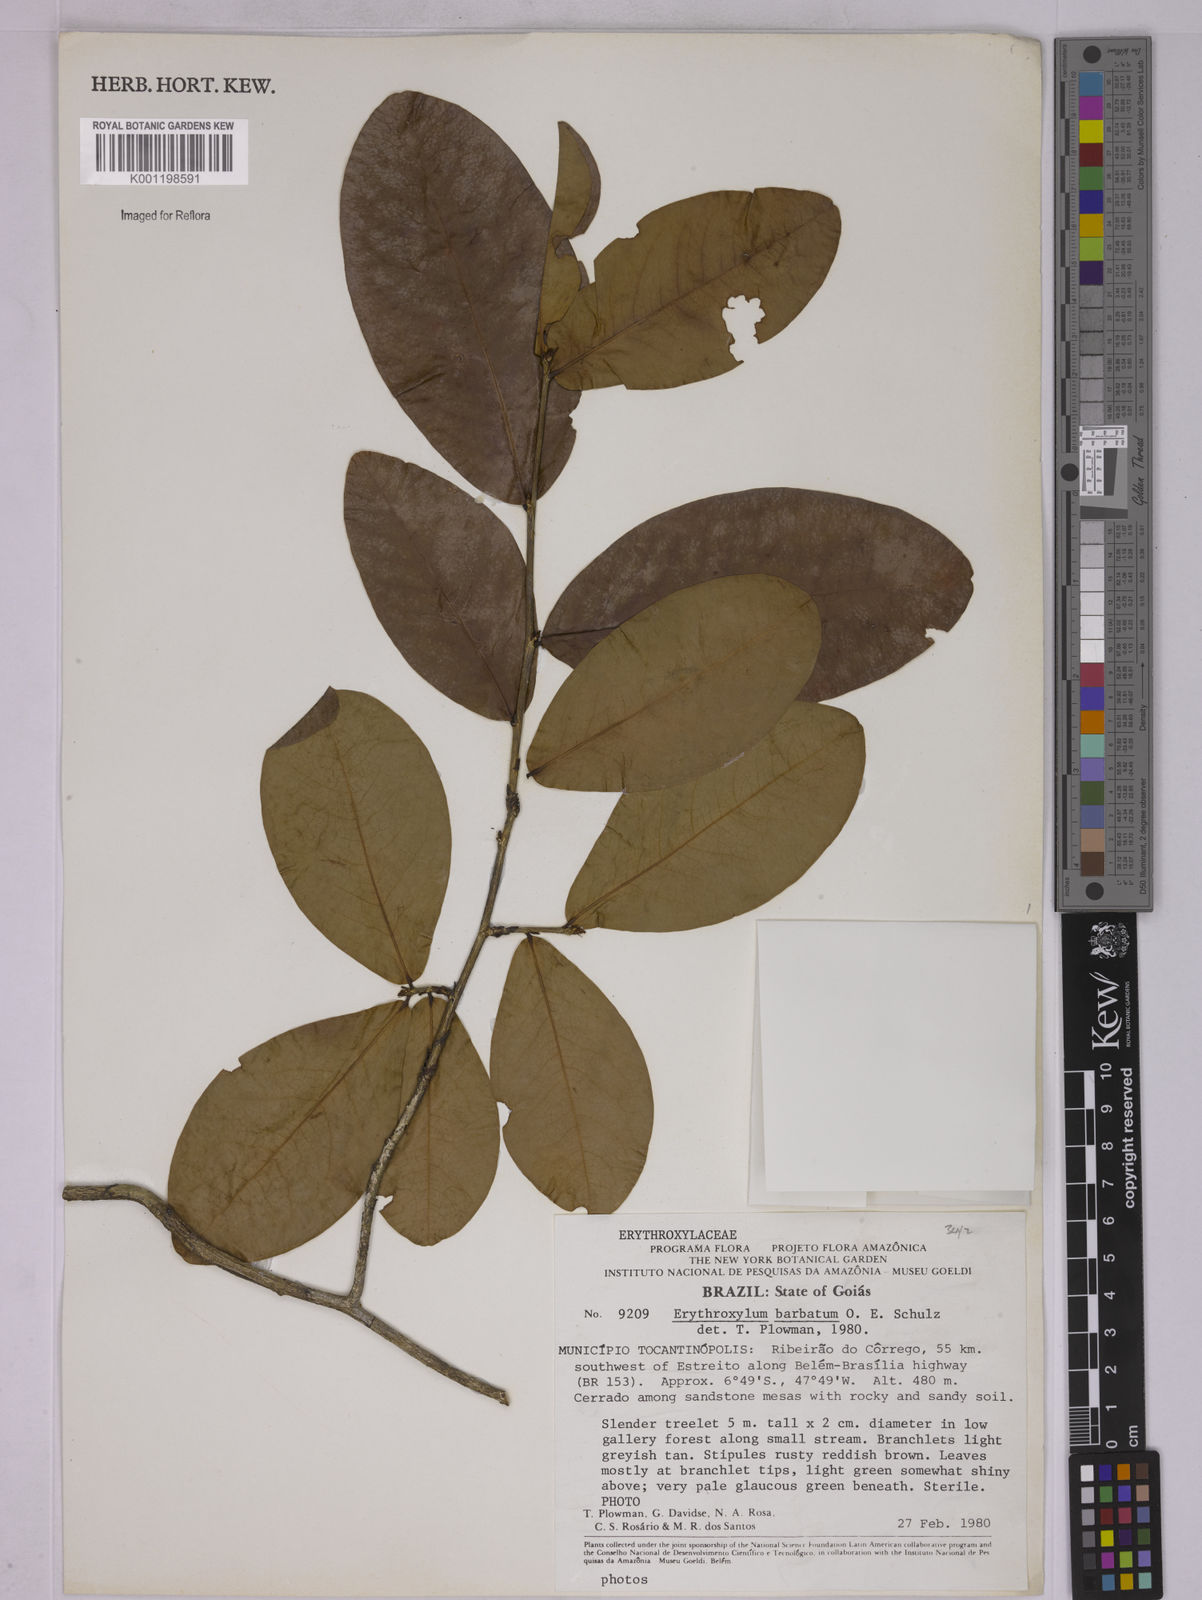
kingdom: Plantae
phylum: Tracheophyta
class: Magnoliopsida
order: Malpighiales
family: Erythroxylaceae
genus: Erythroxylum
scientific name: Erythroxylum barbatum
